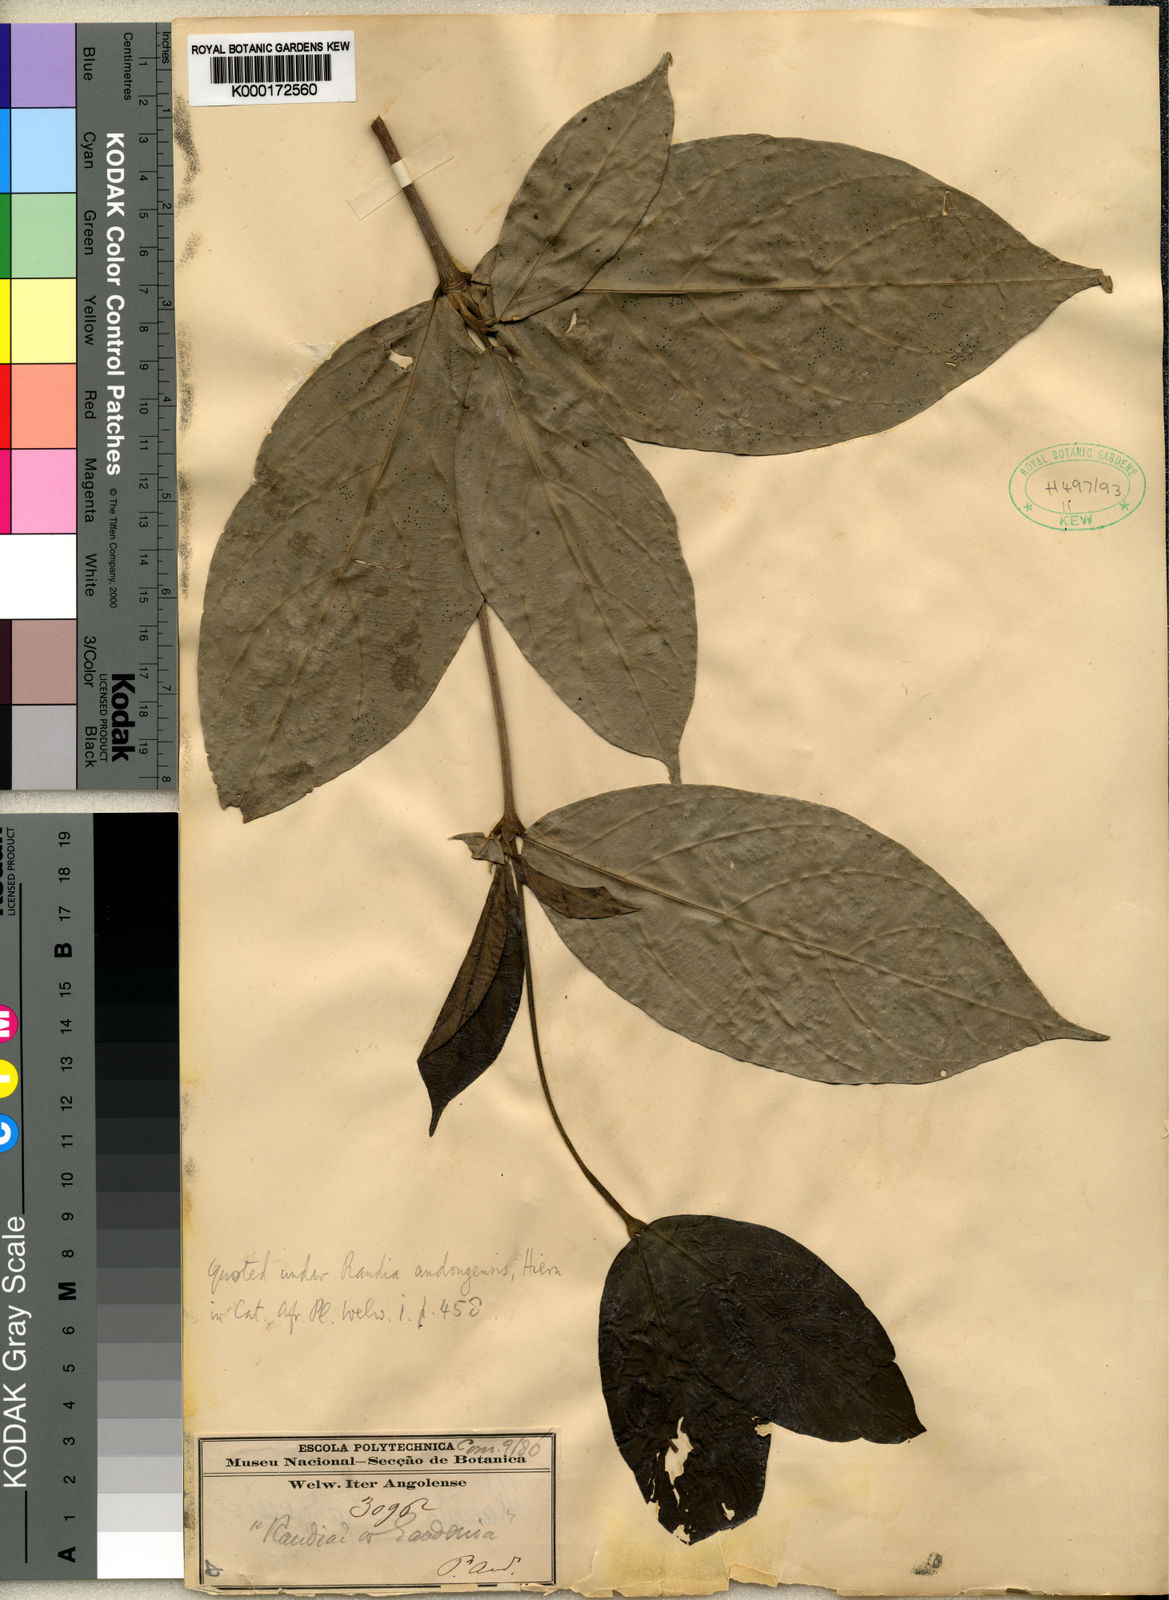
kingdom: Plantae
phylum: Tracheophyta
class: Magnoliopsida
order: Gentianales
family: Rubiaceae
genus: Aulacocalyx
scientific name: Aulacocalyx jasminiflora
